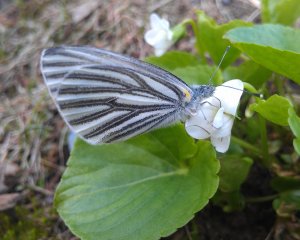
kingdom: Animalia
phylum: Arthropoda
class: Insecta
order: Lepidoptera
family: Pieridae
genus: Pieris
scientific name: Pieris oleracea
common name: Mustard White
